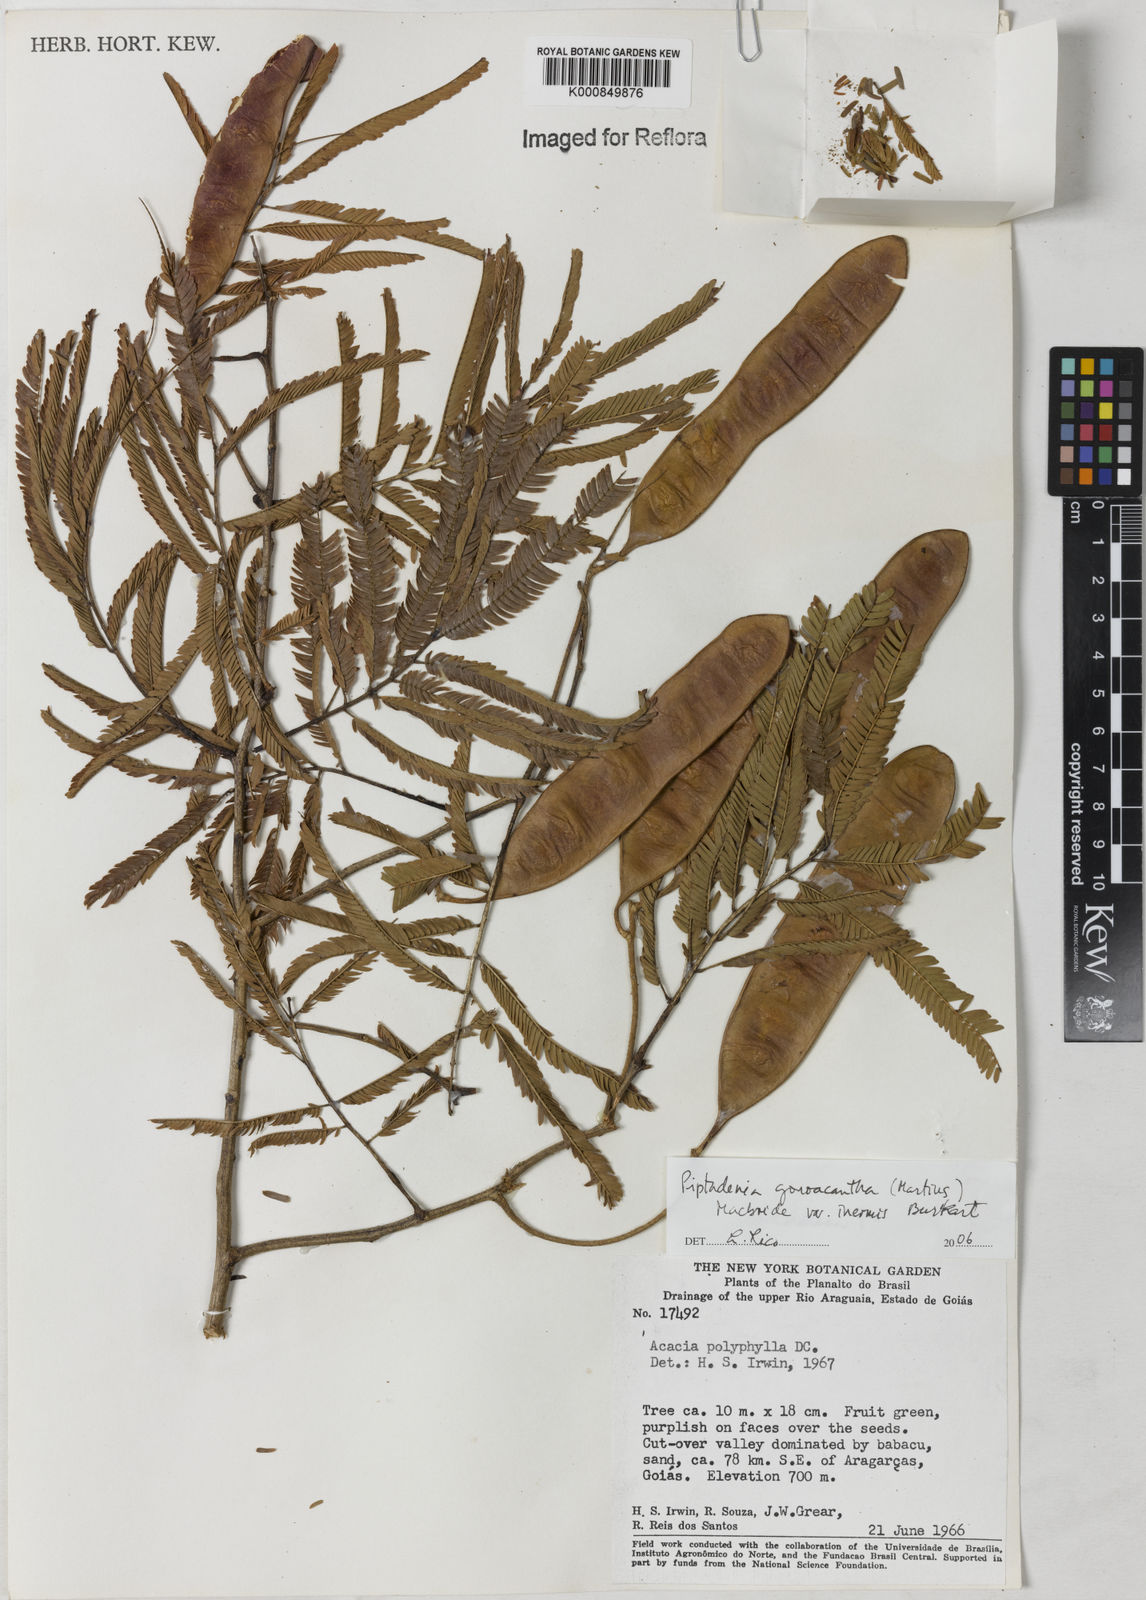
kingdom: Plantae
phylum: Tracheophyta
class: Magnoliopsida
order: Fabales
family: Fabaceae
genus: Piptadenia
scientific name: Piptadenia gonoacantha
